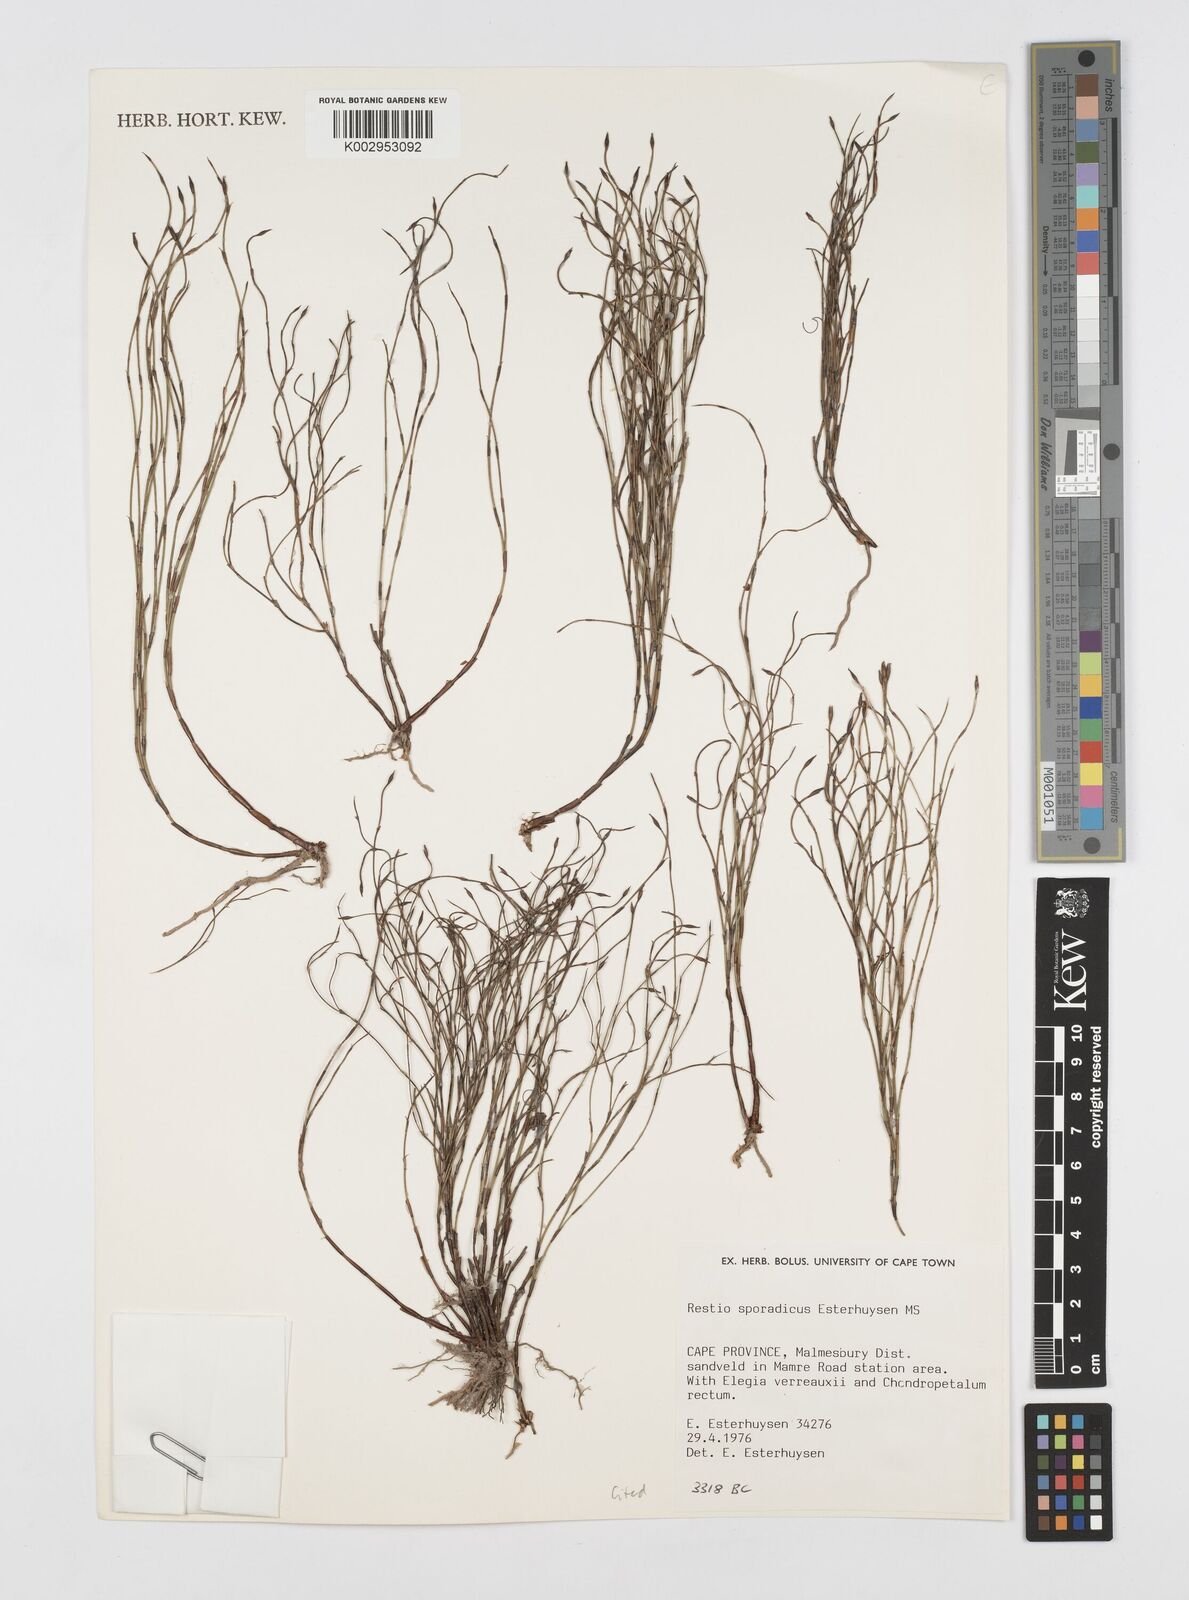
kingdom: Plantae
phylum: Tracheophyta
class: Liliopsida
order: Poales
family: Restionaceae
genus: Restio
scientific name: Restio sporadicus
